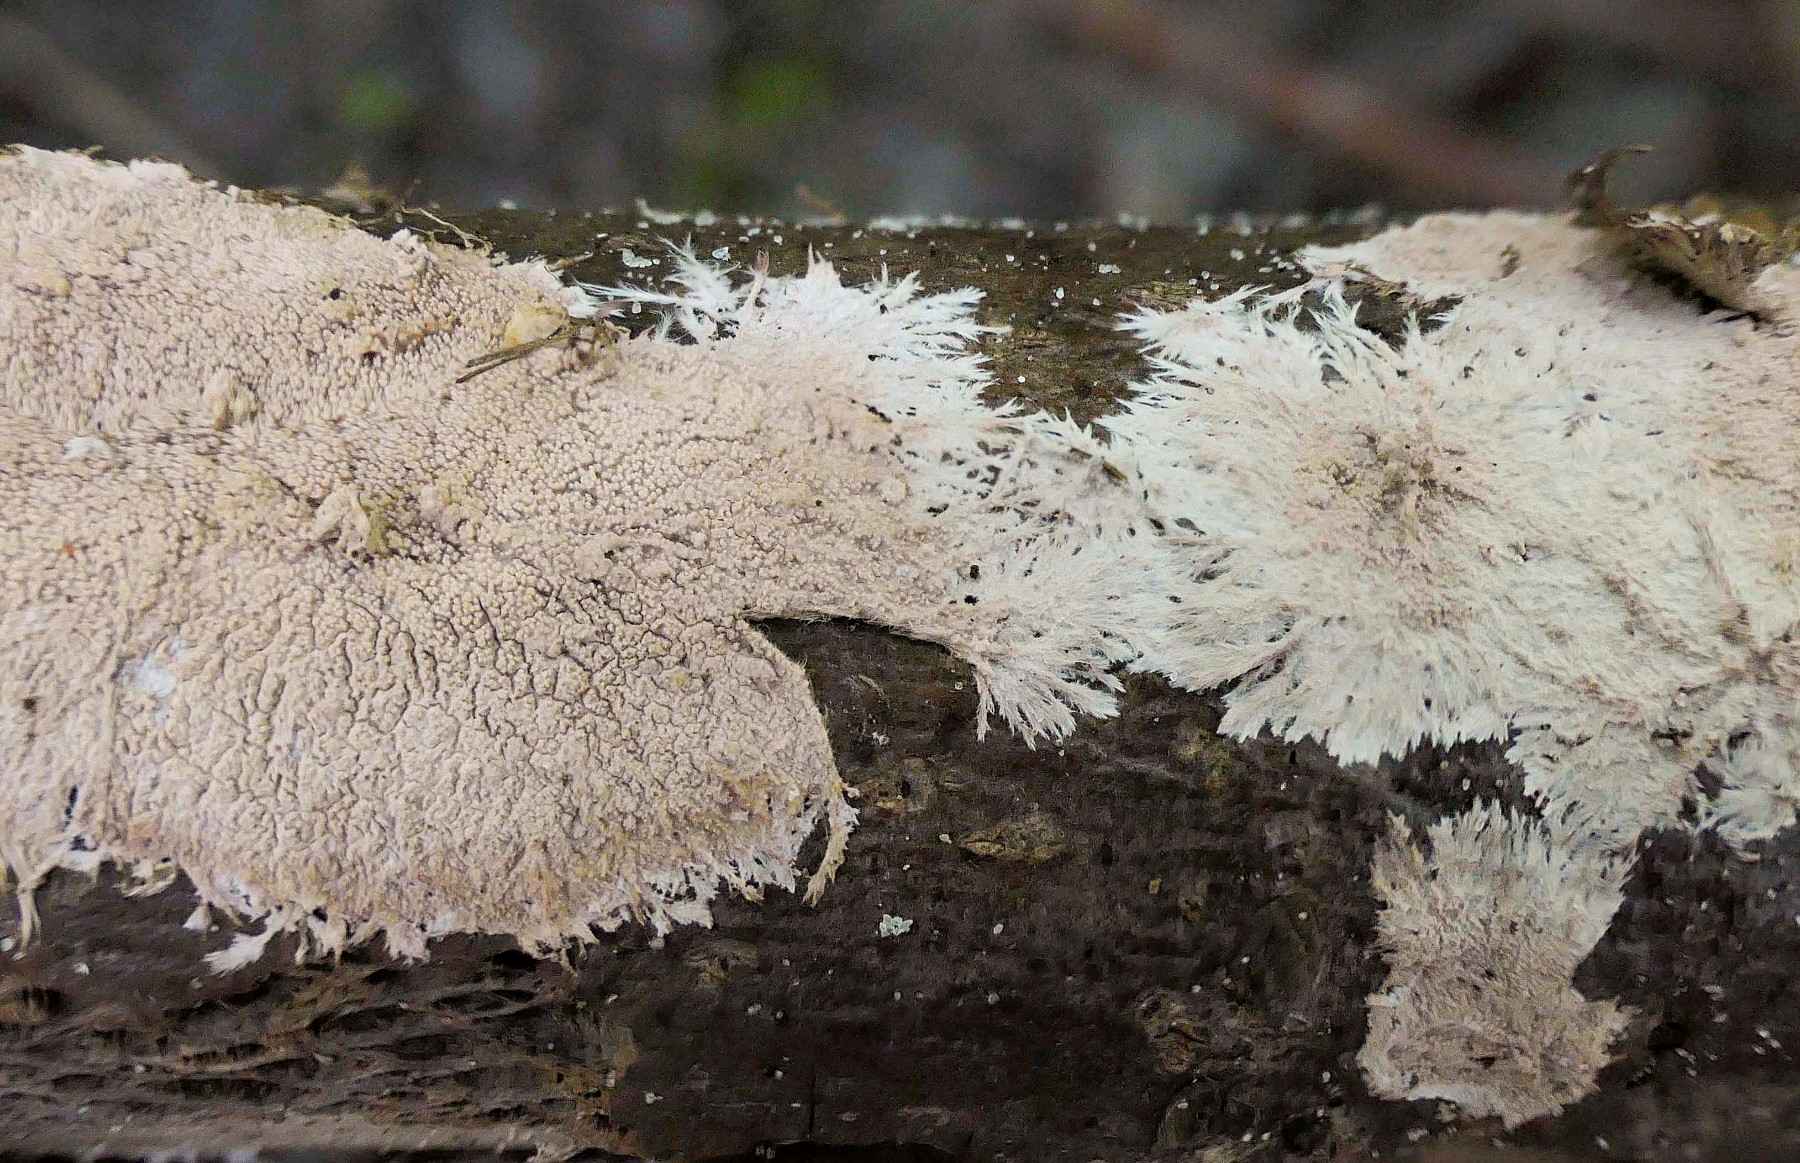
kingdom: Fungi
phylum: Basidiomycota
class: Agaricomycetes
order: Polyporales
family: Steccherinaceae
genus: Steccherinum
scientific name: Steccherinum fimbriatum
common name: trådet skønpig
